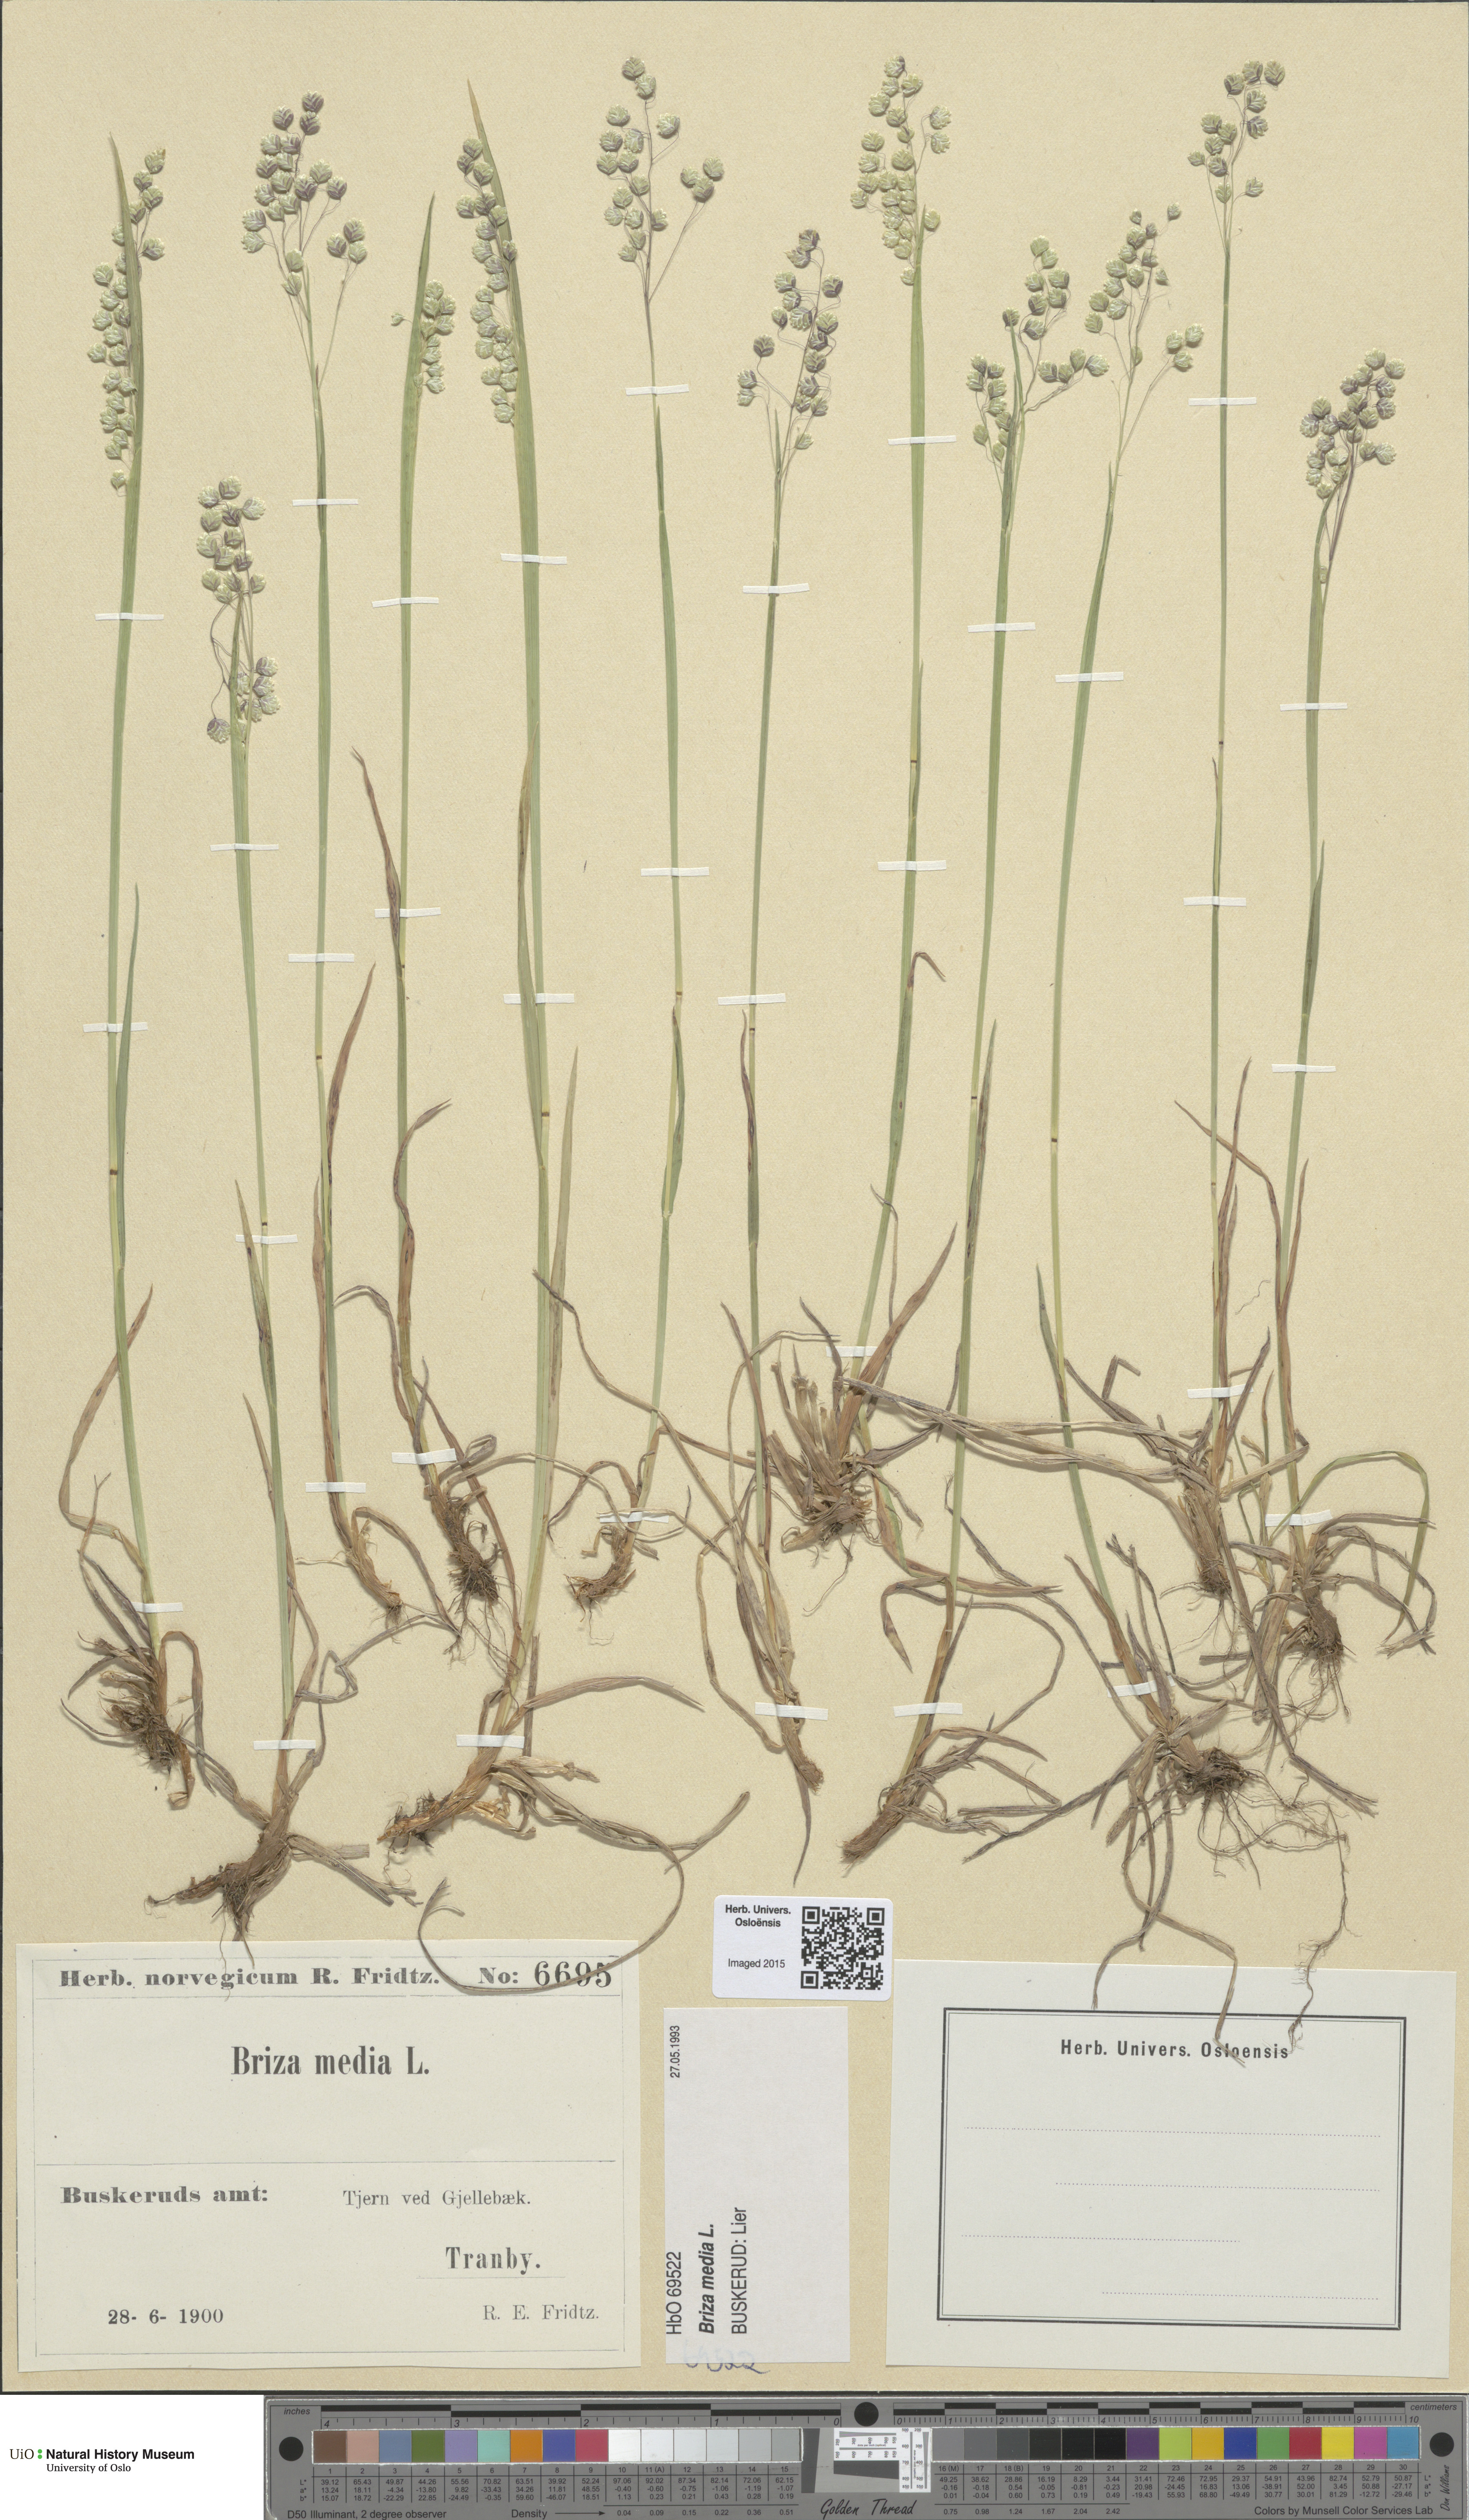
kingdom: Plantae
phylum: Tracheophyta
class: Liliopsida
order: Poales
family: Poaceae
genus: Briza
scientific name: Briza media
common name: Quaking grass
